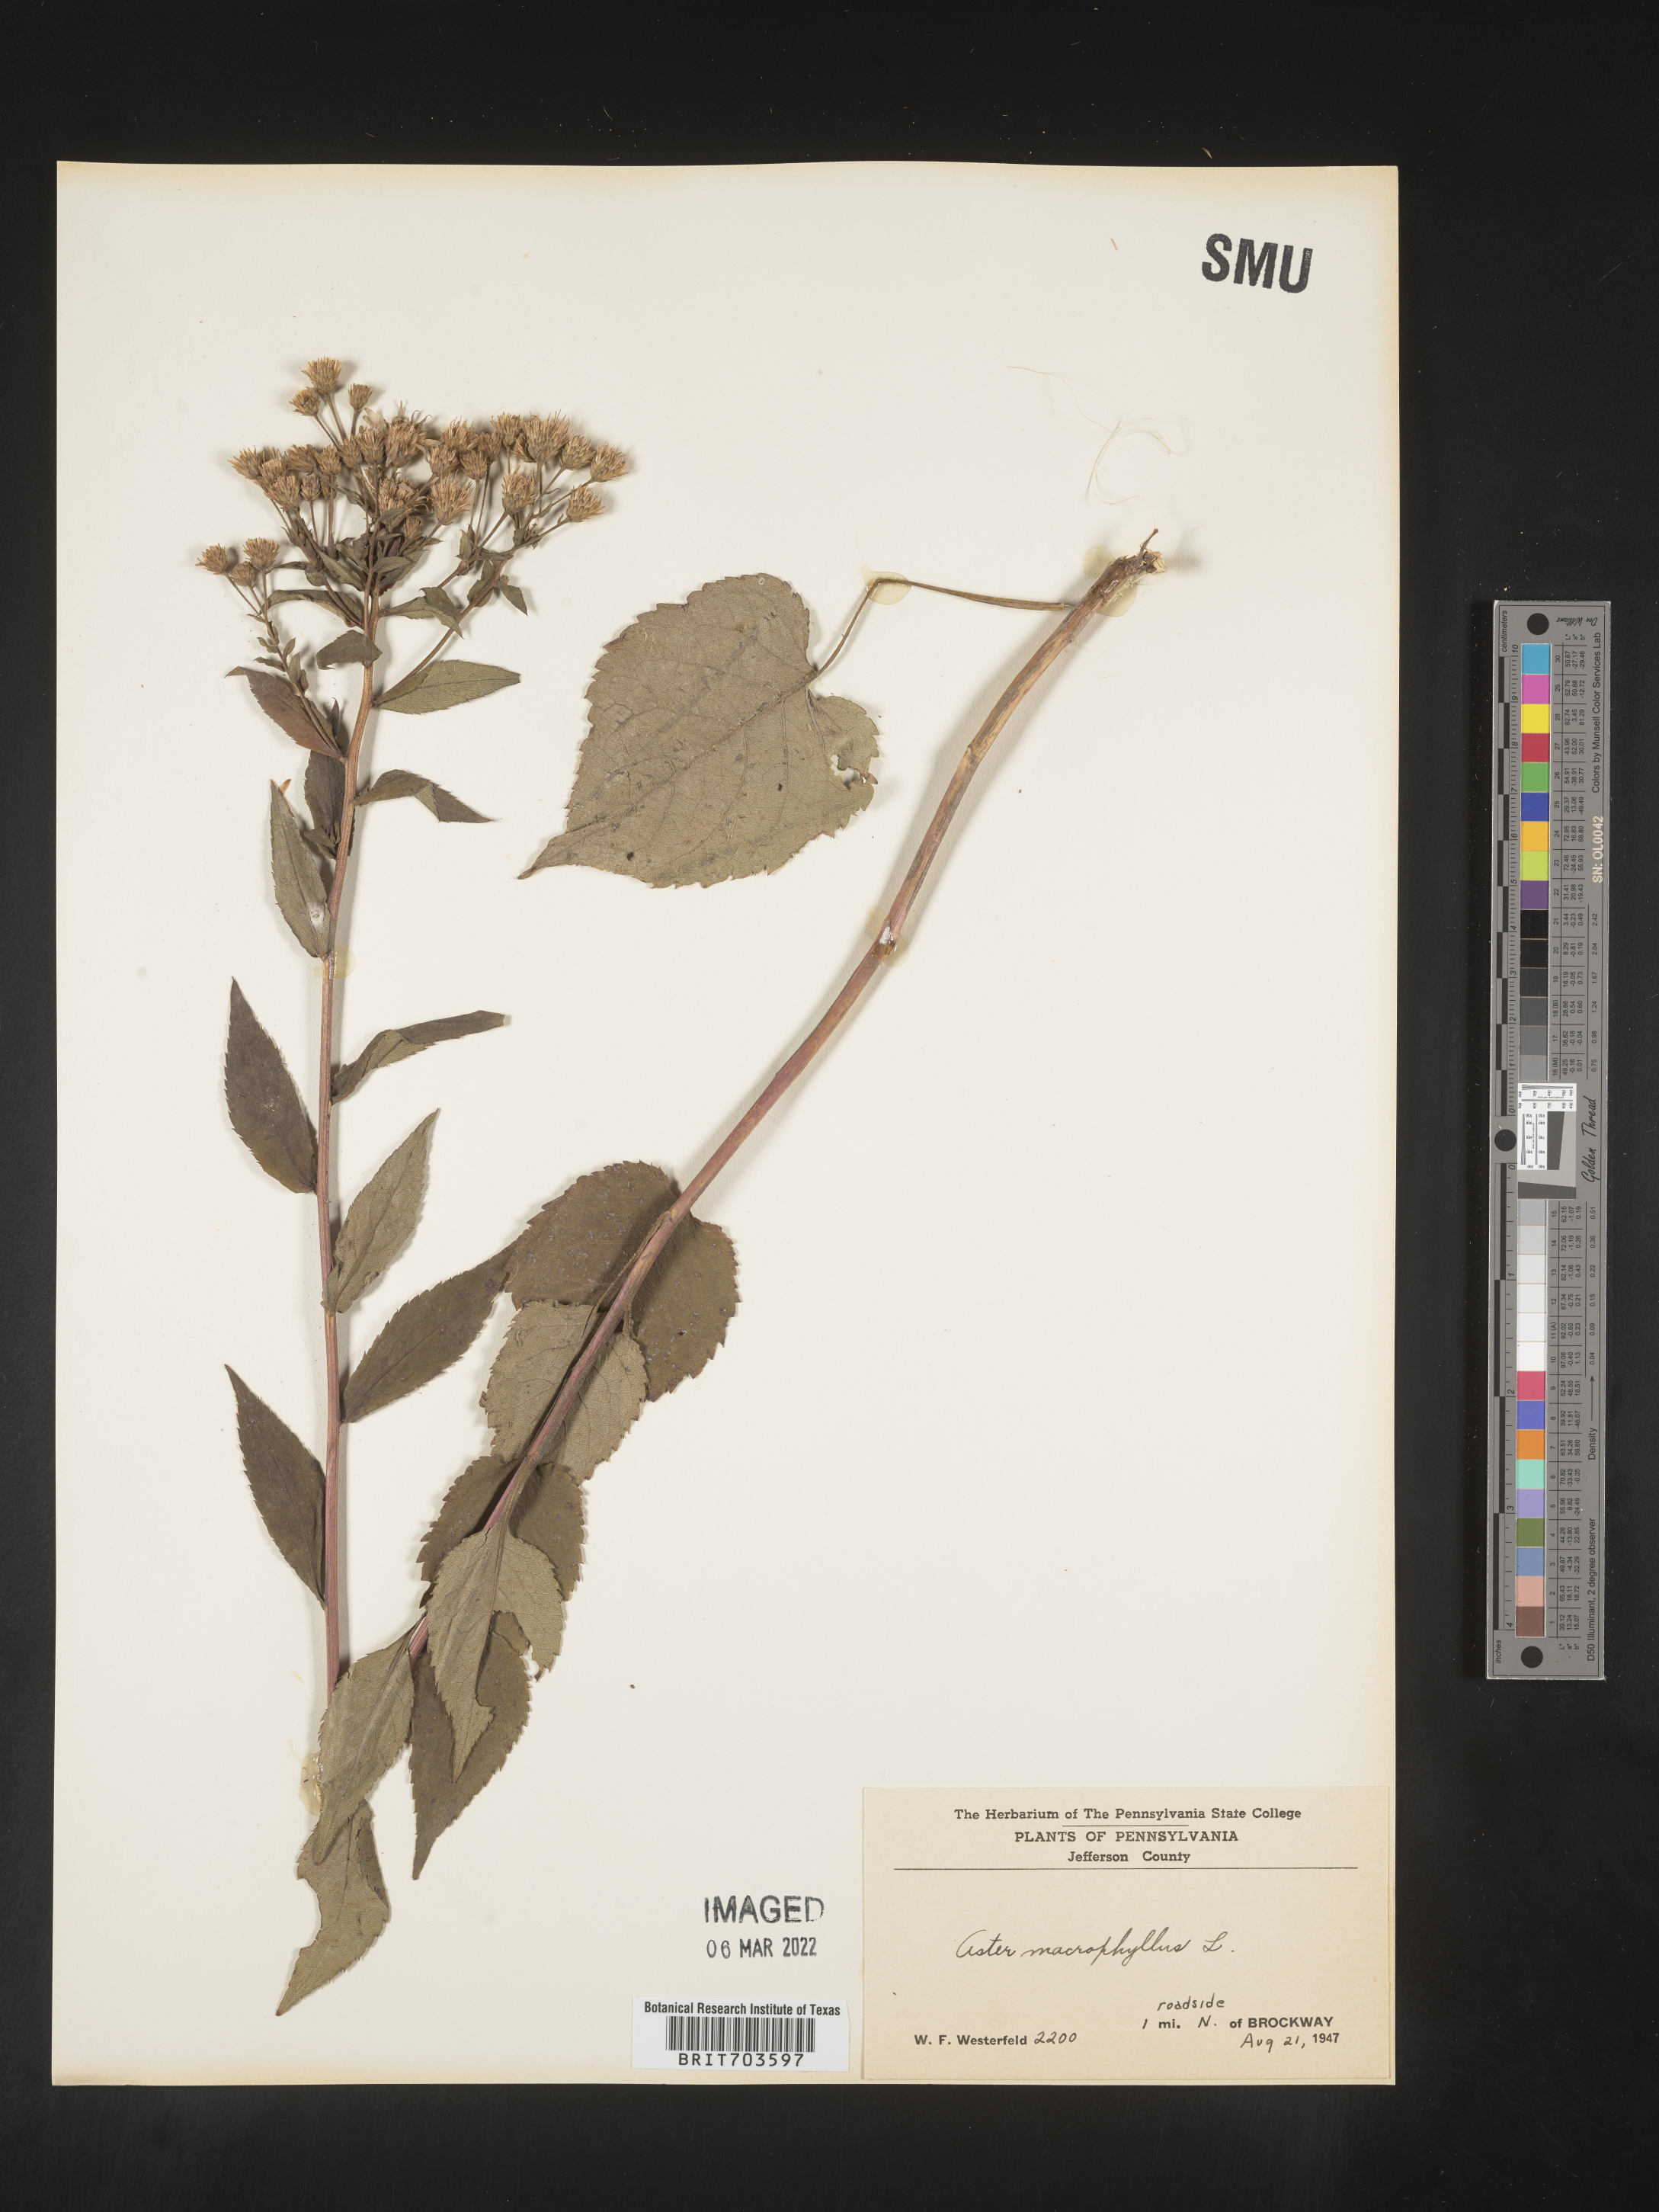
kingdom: Plantae
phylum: Tracheophyta
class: Magnoliopsida
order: Asterales
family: Asteraceae
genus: Eurybia
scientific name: Eurybia macrophylla
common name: Big-leaved aster
